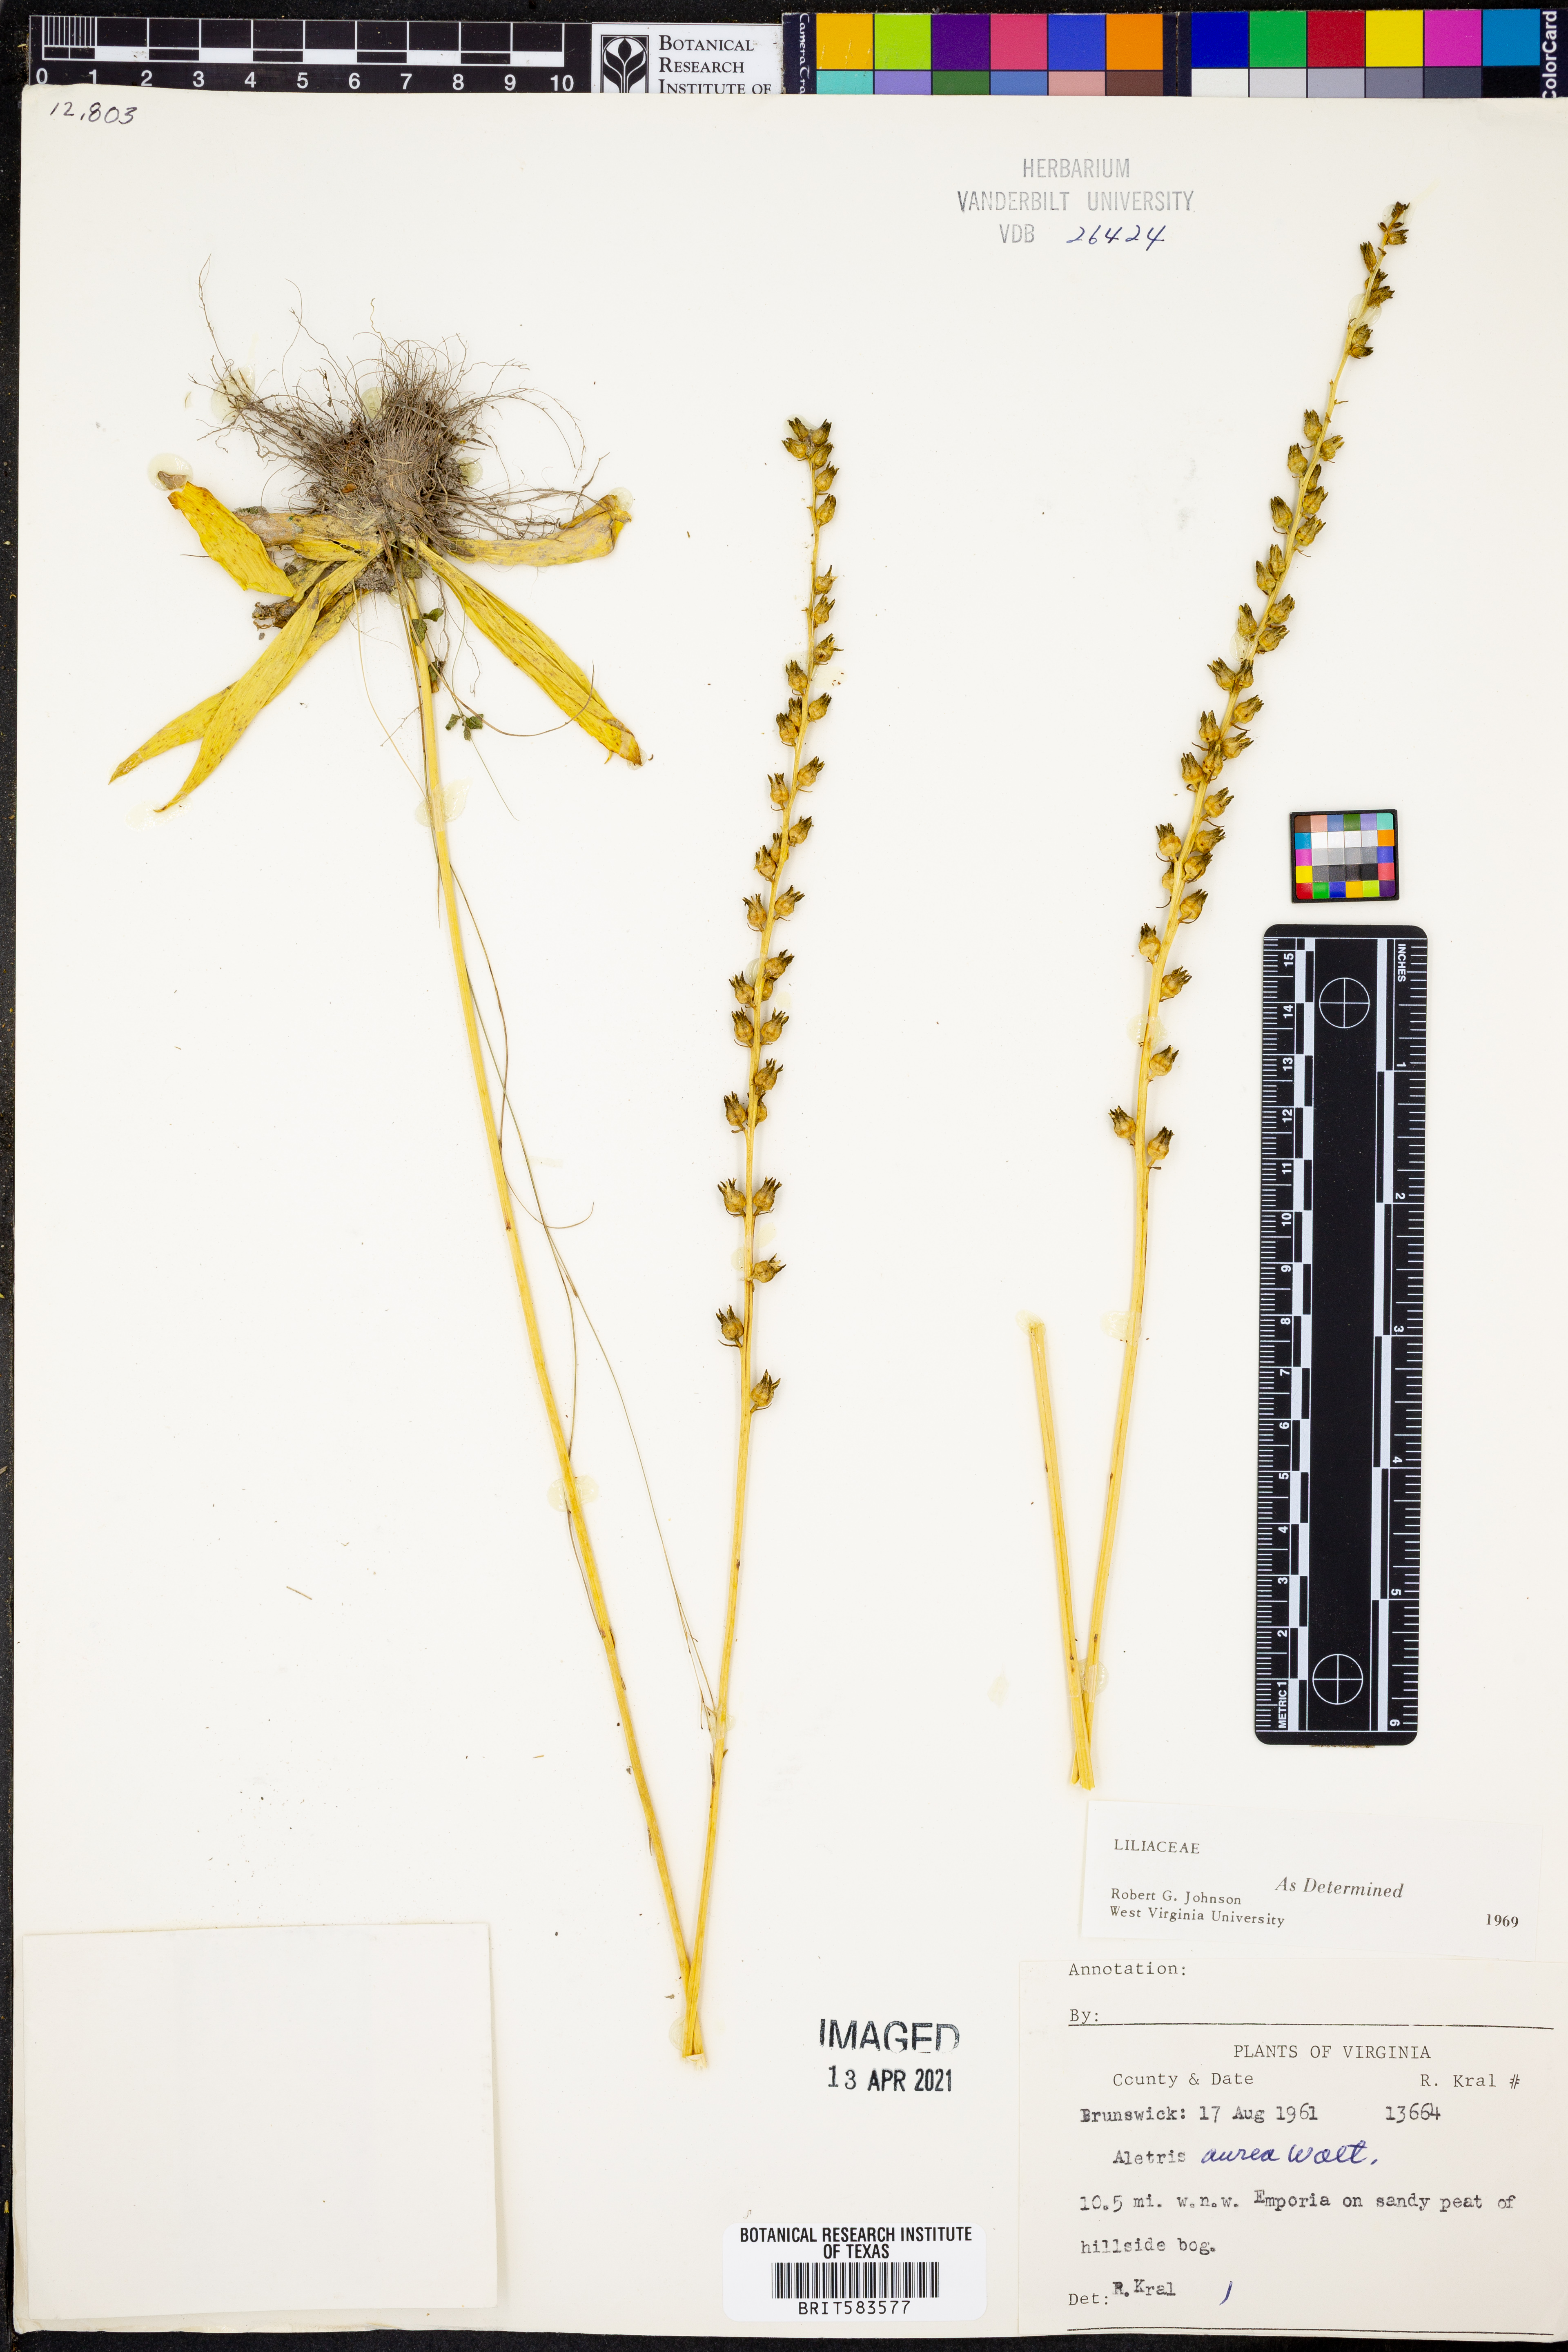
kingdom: Plantae
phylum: Tracheophyta
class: Liliopsida
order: Dioscoreales
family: Nartheciaceae
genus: Aletris
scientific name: Aletris aurea
